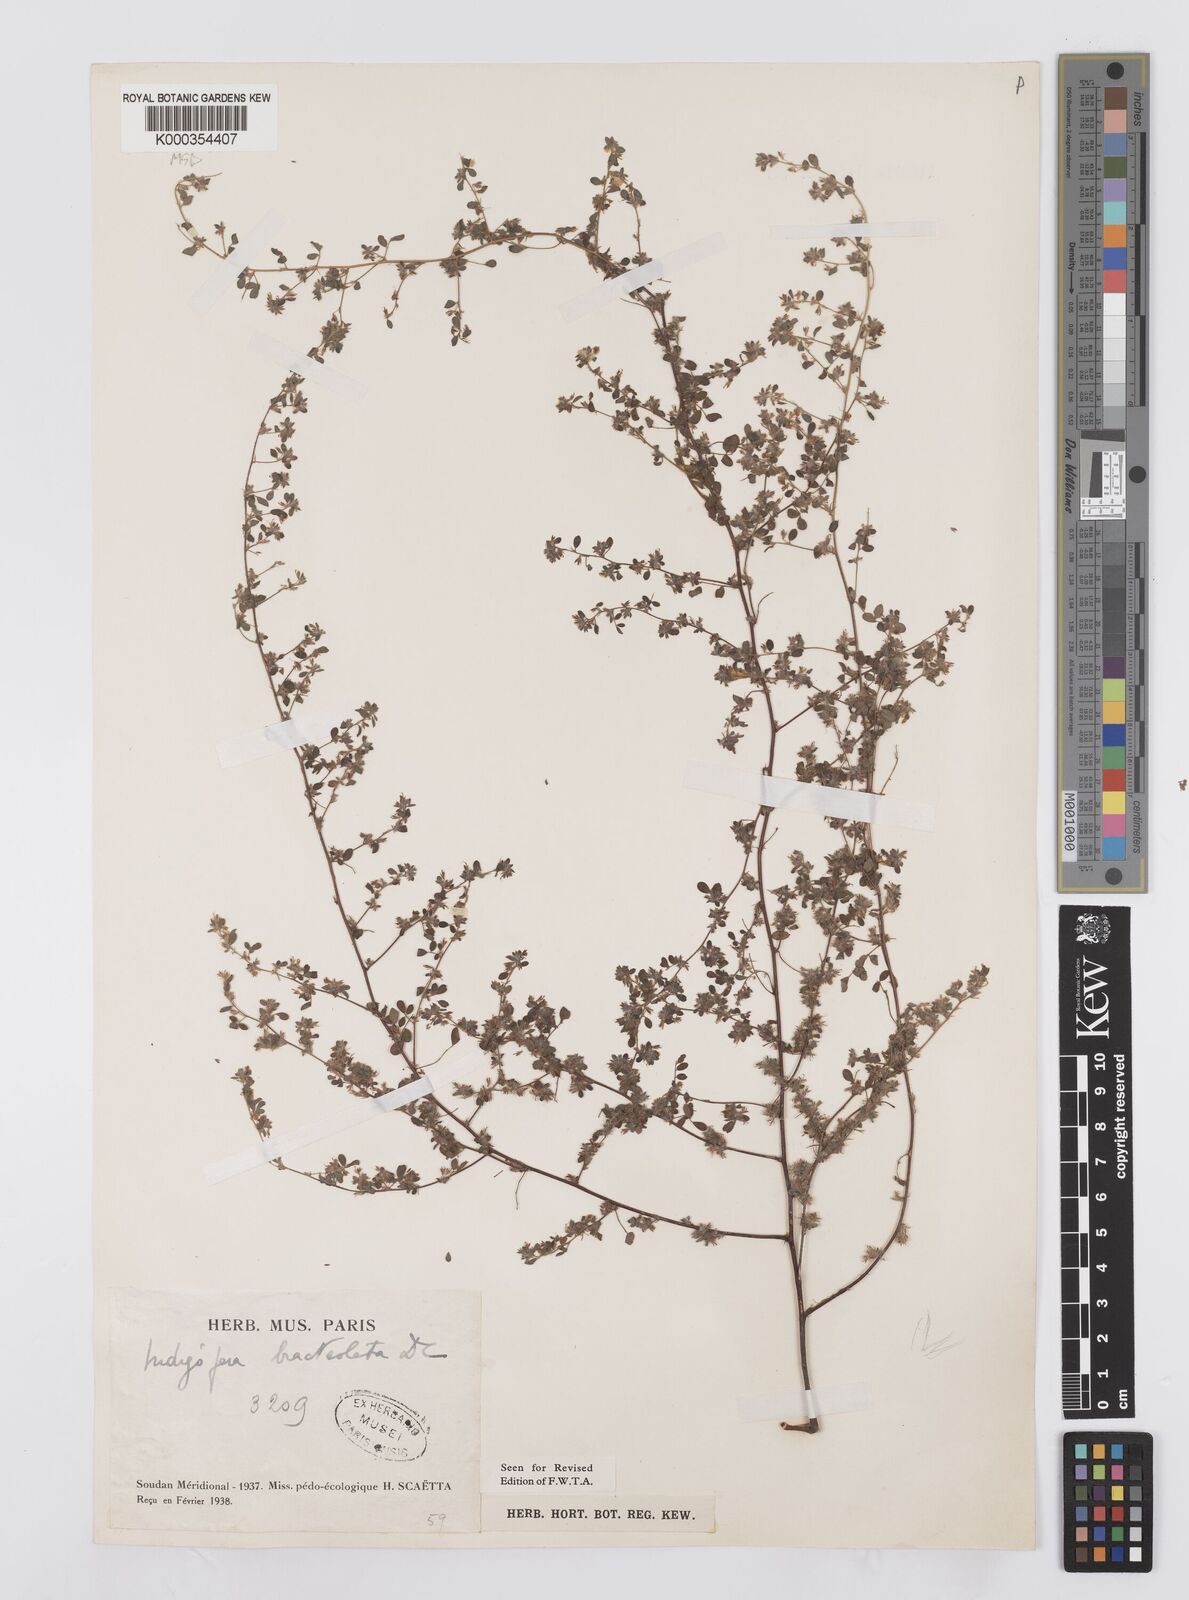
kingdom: Plantae
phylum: Tracheophyta
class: Magnoliopsida
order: Fabales
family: Fabaceae
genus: Indigofera
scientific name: Indigofera bracteolata
